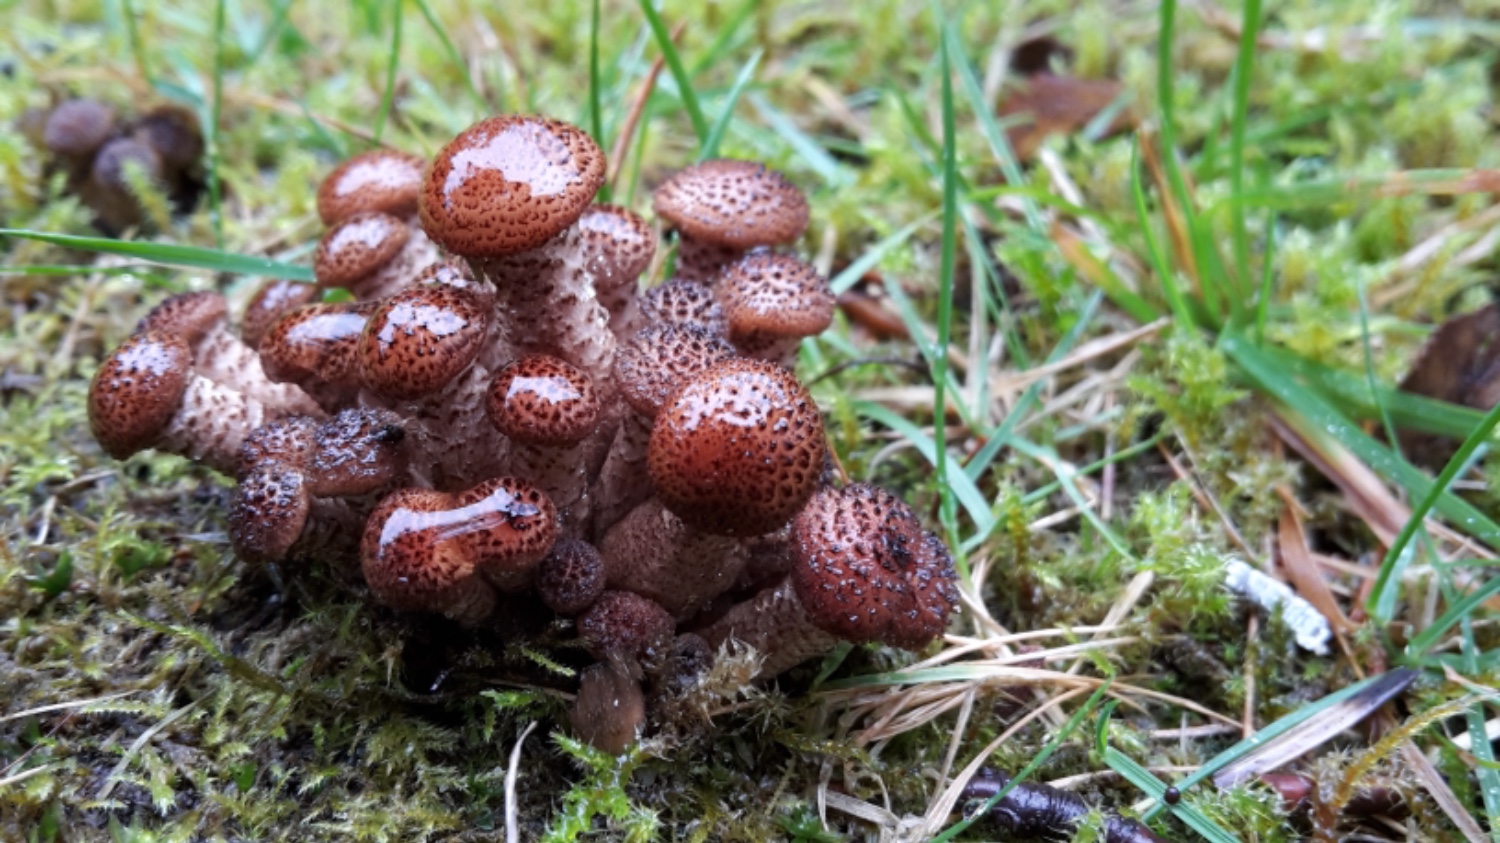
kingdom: Fungi
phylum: Basidiomycota
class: Agaricomycetes
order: Agaricales
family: Physalacriaceae
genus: Armillaria
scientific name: Armillaria ostoyae
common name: mørk honningsvamp
